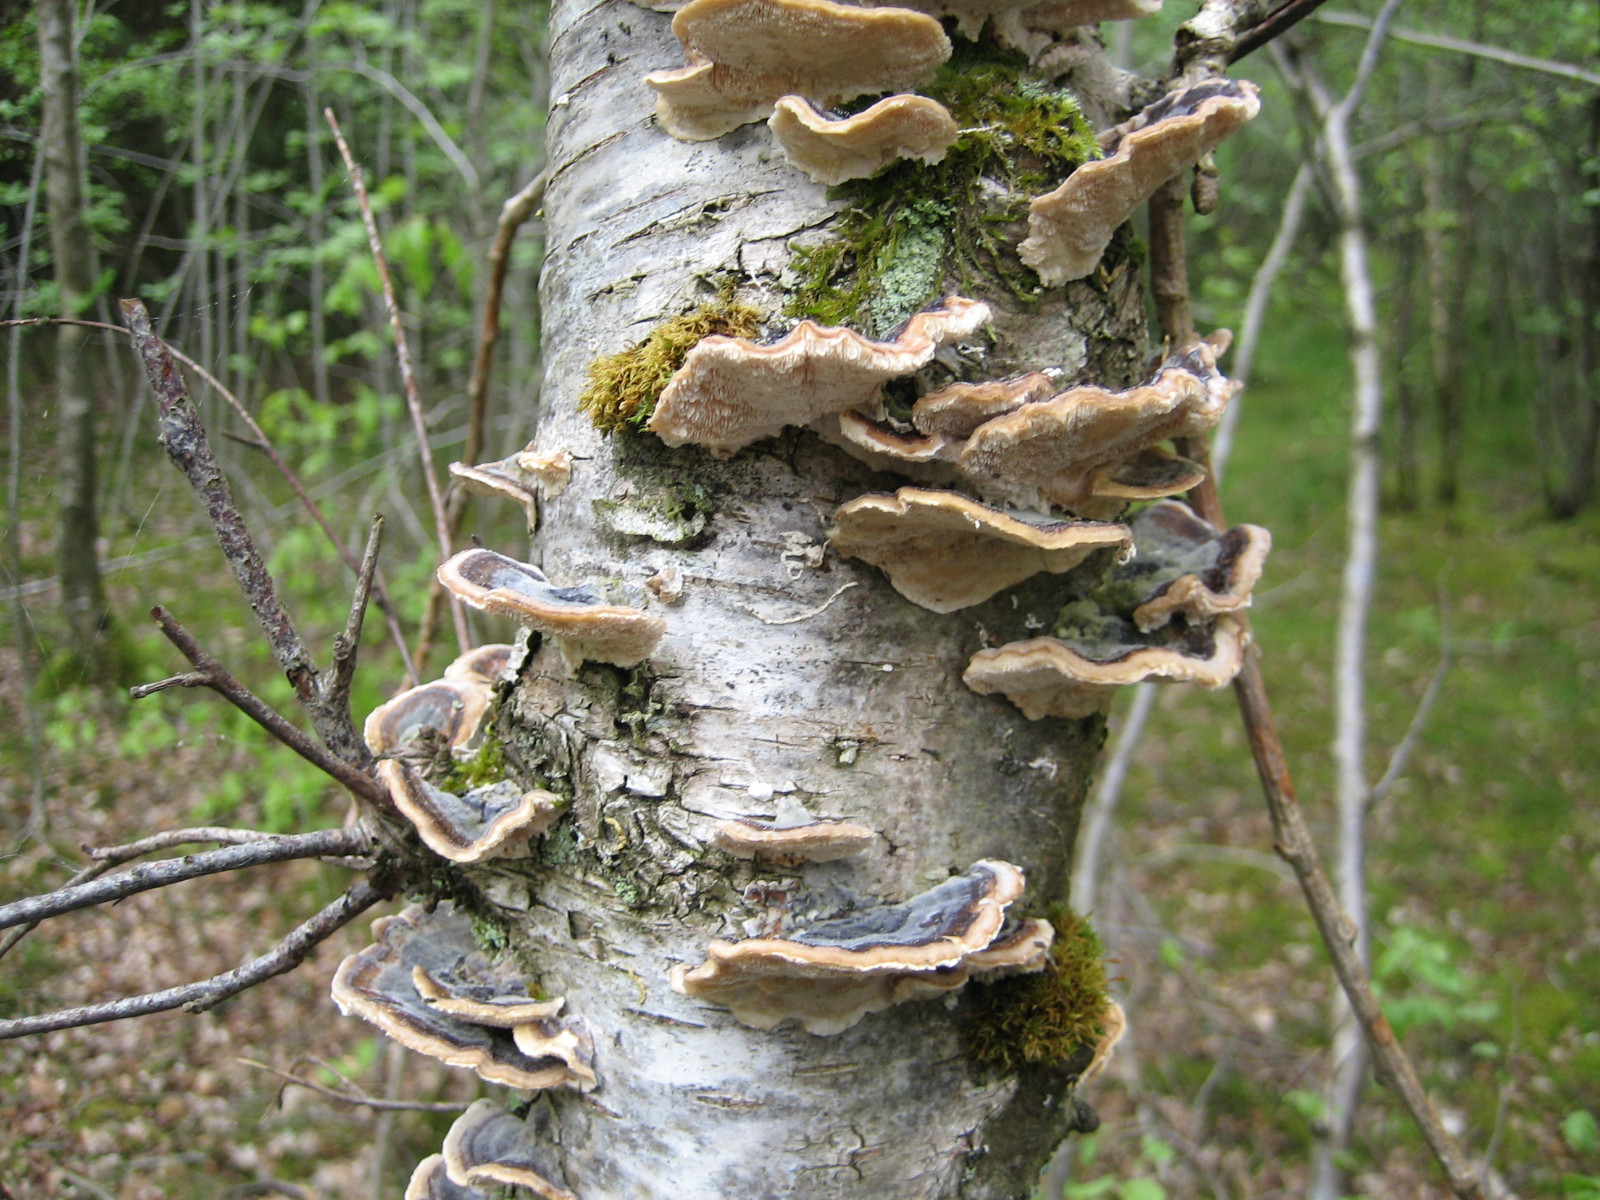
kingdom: Fungi
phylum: Basidiomycota
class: Agaricomycetes
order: Polyporales
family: Polyporaceae
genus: Trametes
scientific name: Trametes versicolor
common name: broget læderporesvamp
